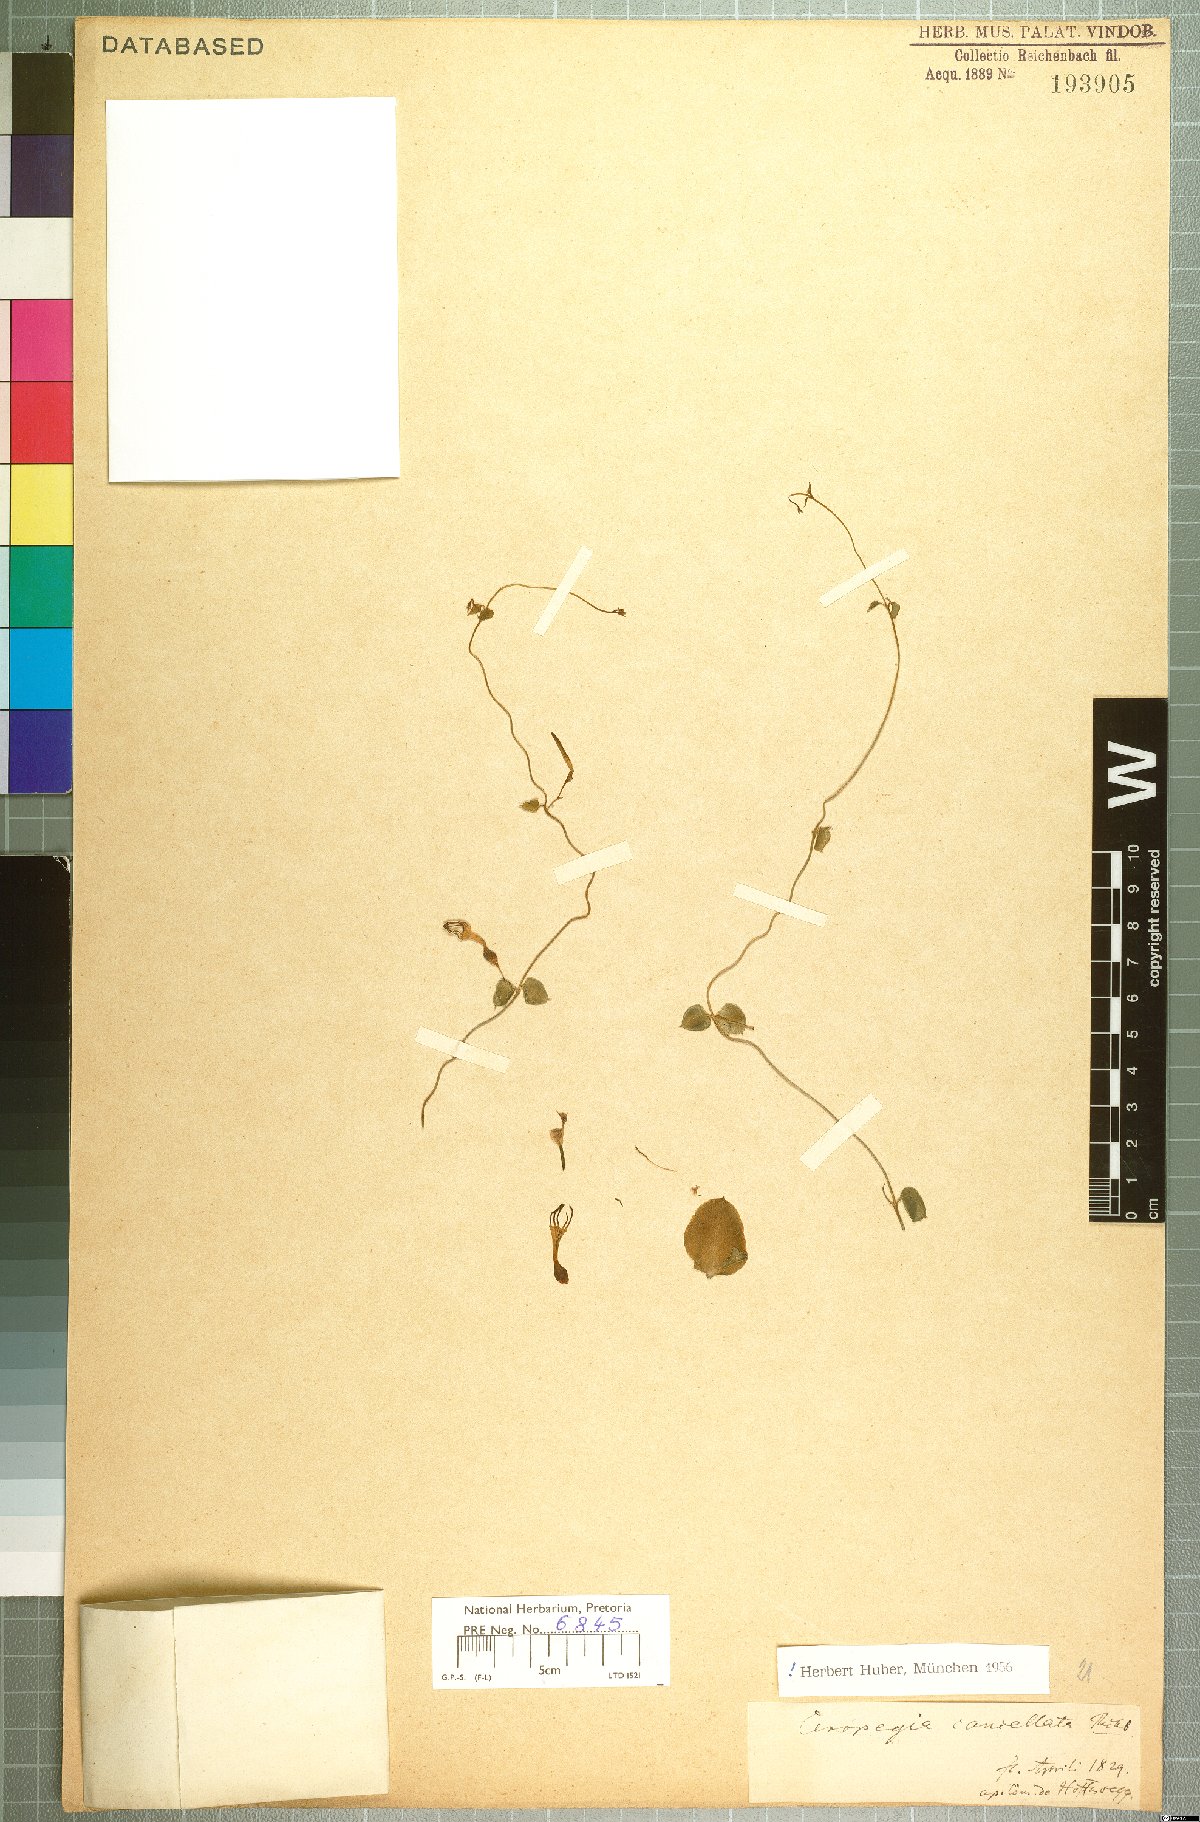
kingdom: Plantae
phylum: Tracheophyta
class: Magnoliopsida
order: Gentianales
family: Apocynaceae
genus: Ceropegia
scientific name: Ceropegia cancellata
